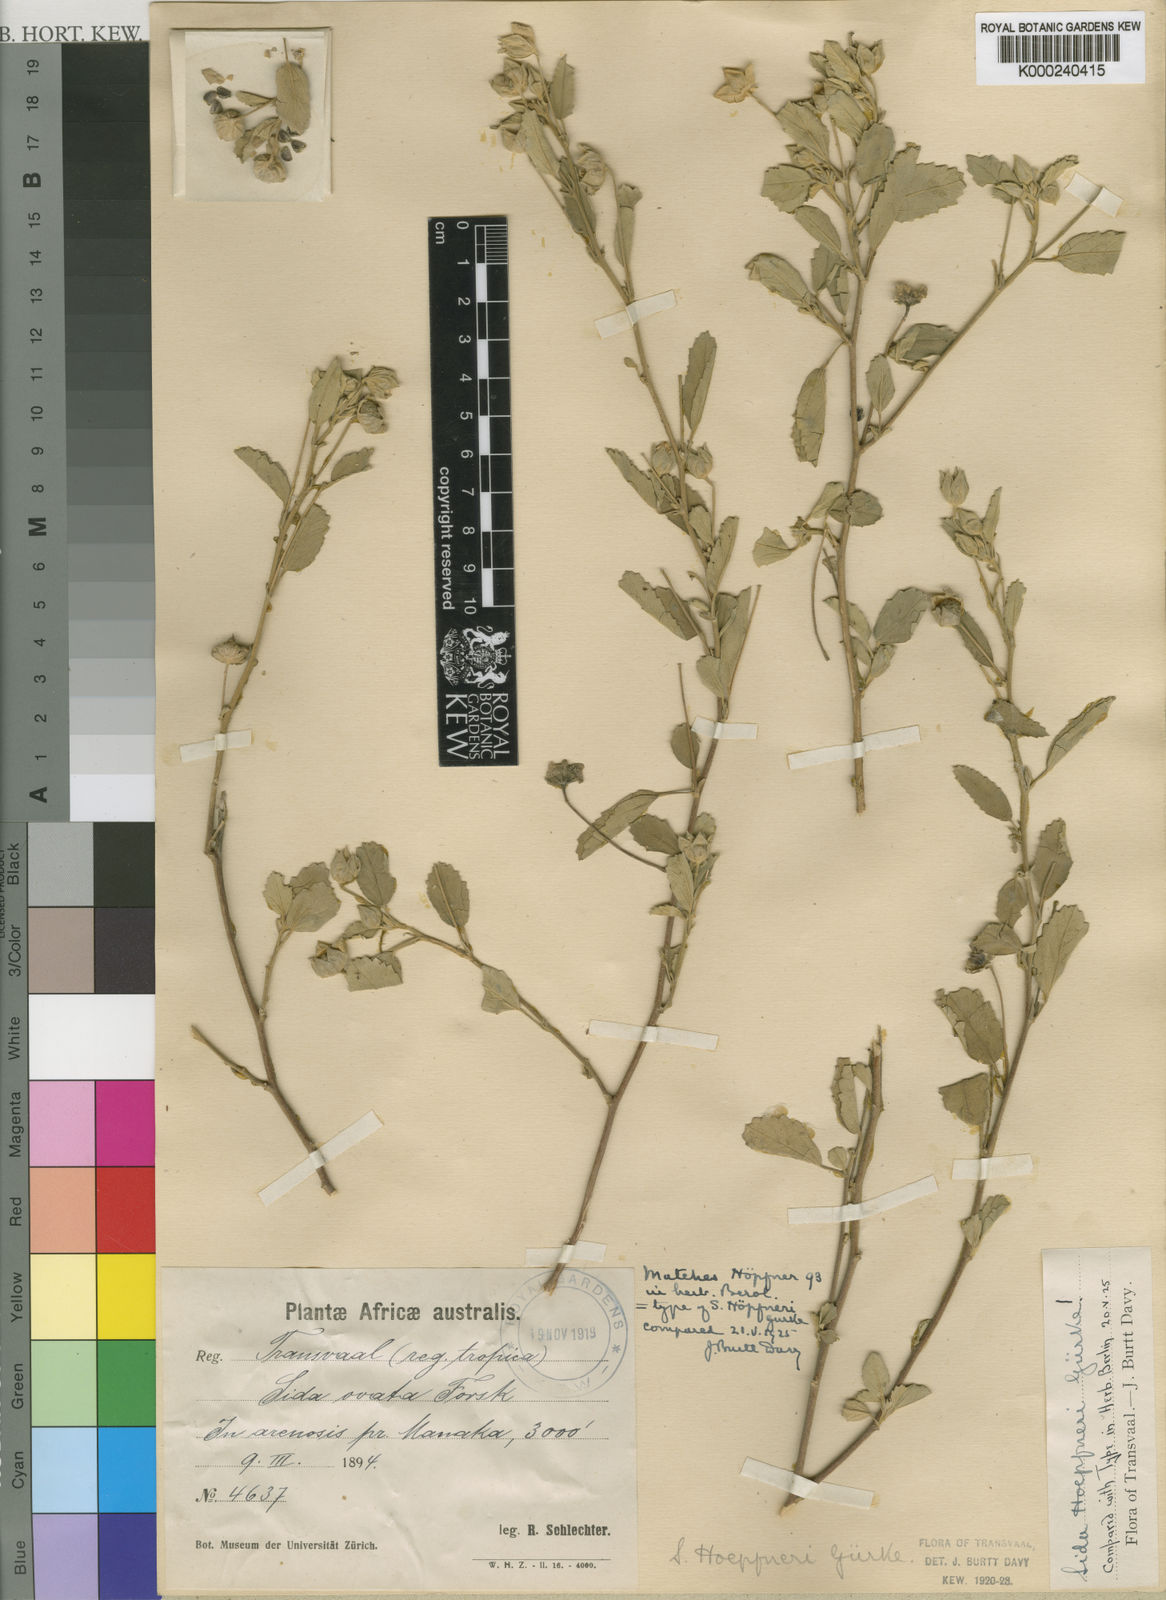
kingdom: Plantae
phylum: Tracheophyta
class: Magnoliopsida
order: Malvales
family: Malvaceae
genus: Sida
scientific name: Sida
